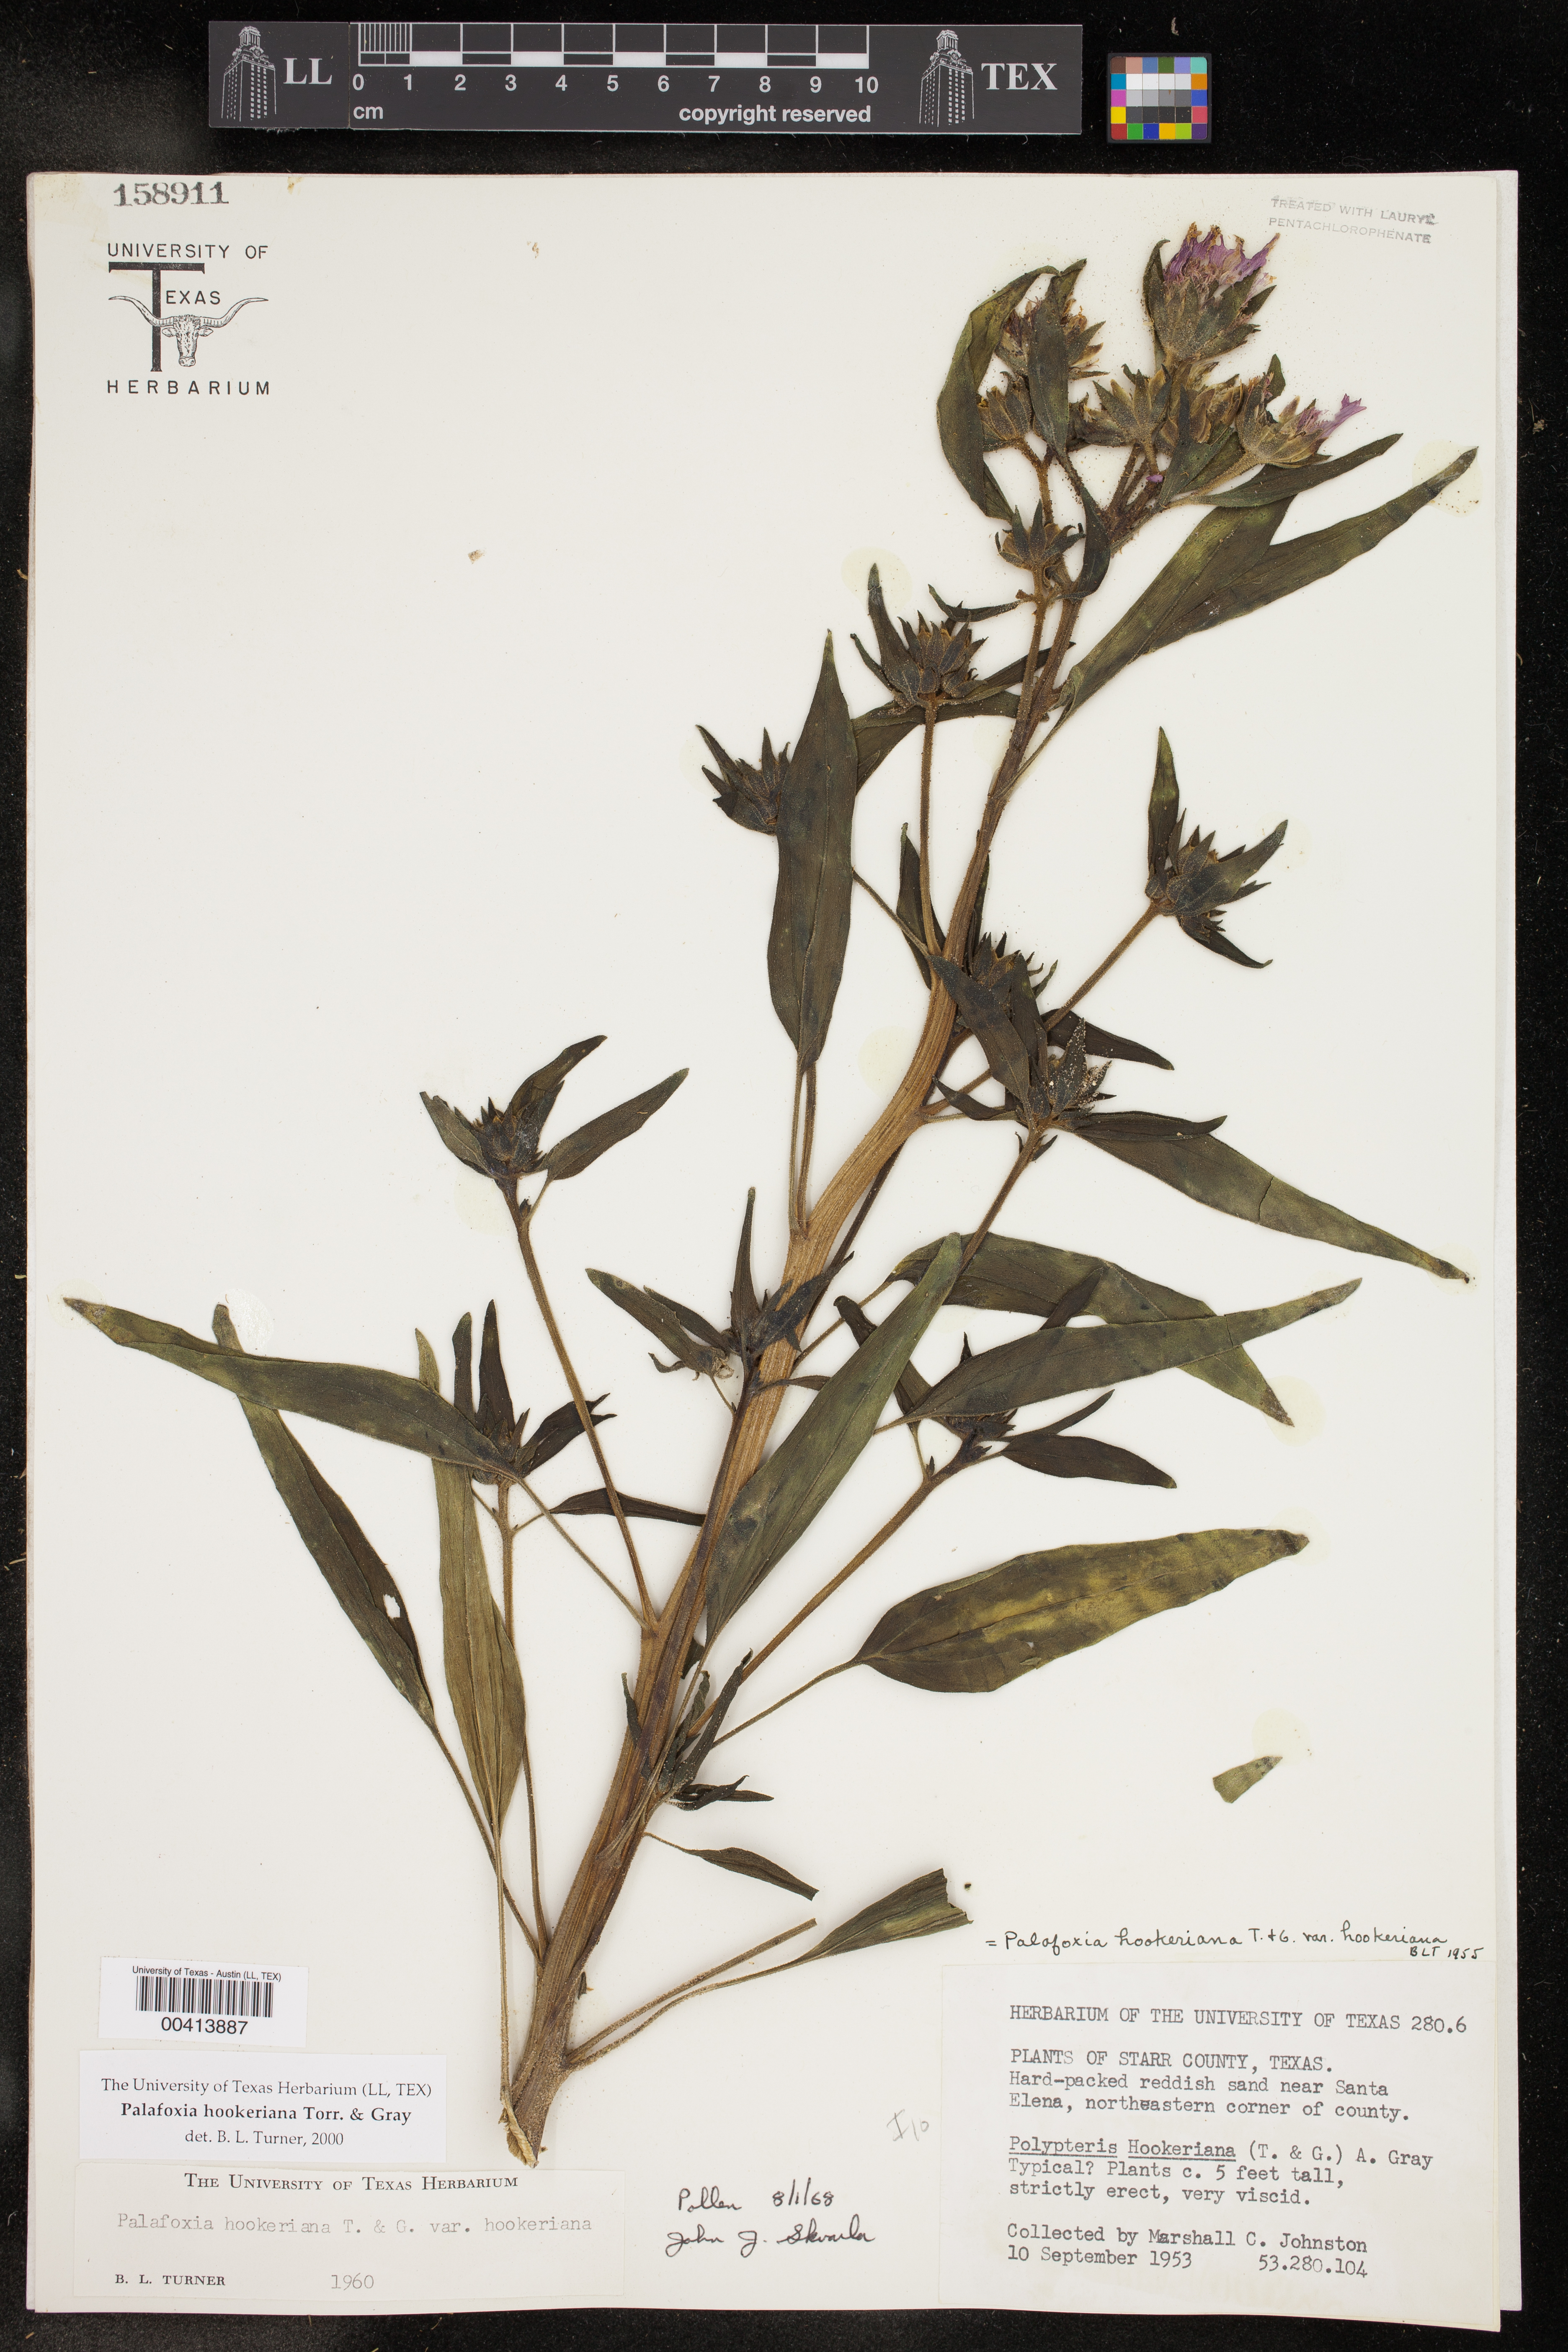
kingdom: Plantae
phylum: Tracheophyta
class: Magnoliopsida
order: Asterales
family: Asteraceae
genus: Palafoxia
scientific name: Palafoxia hookeriana
